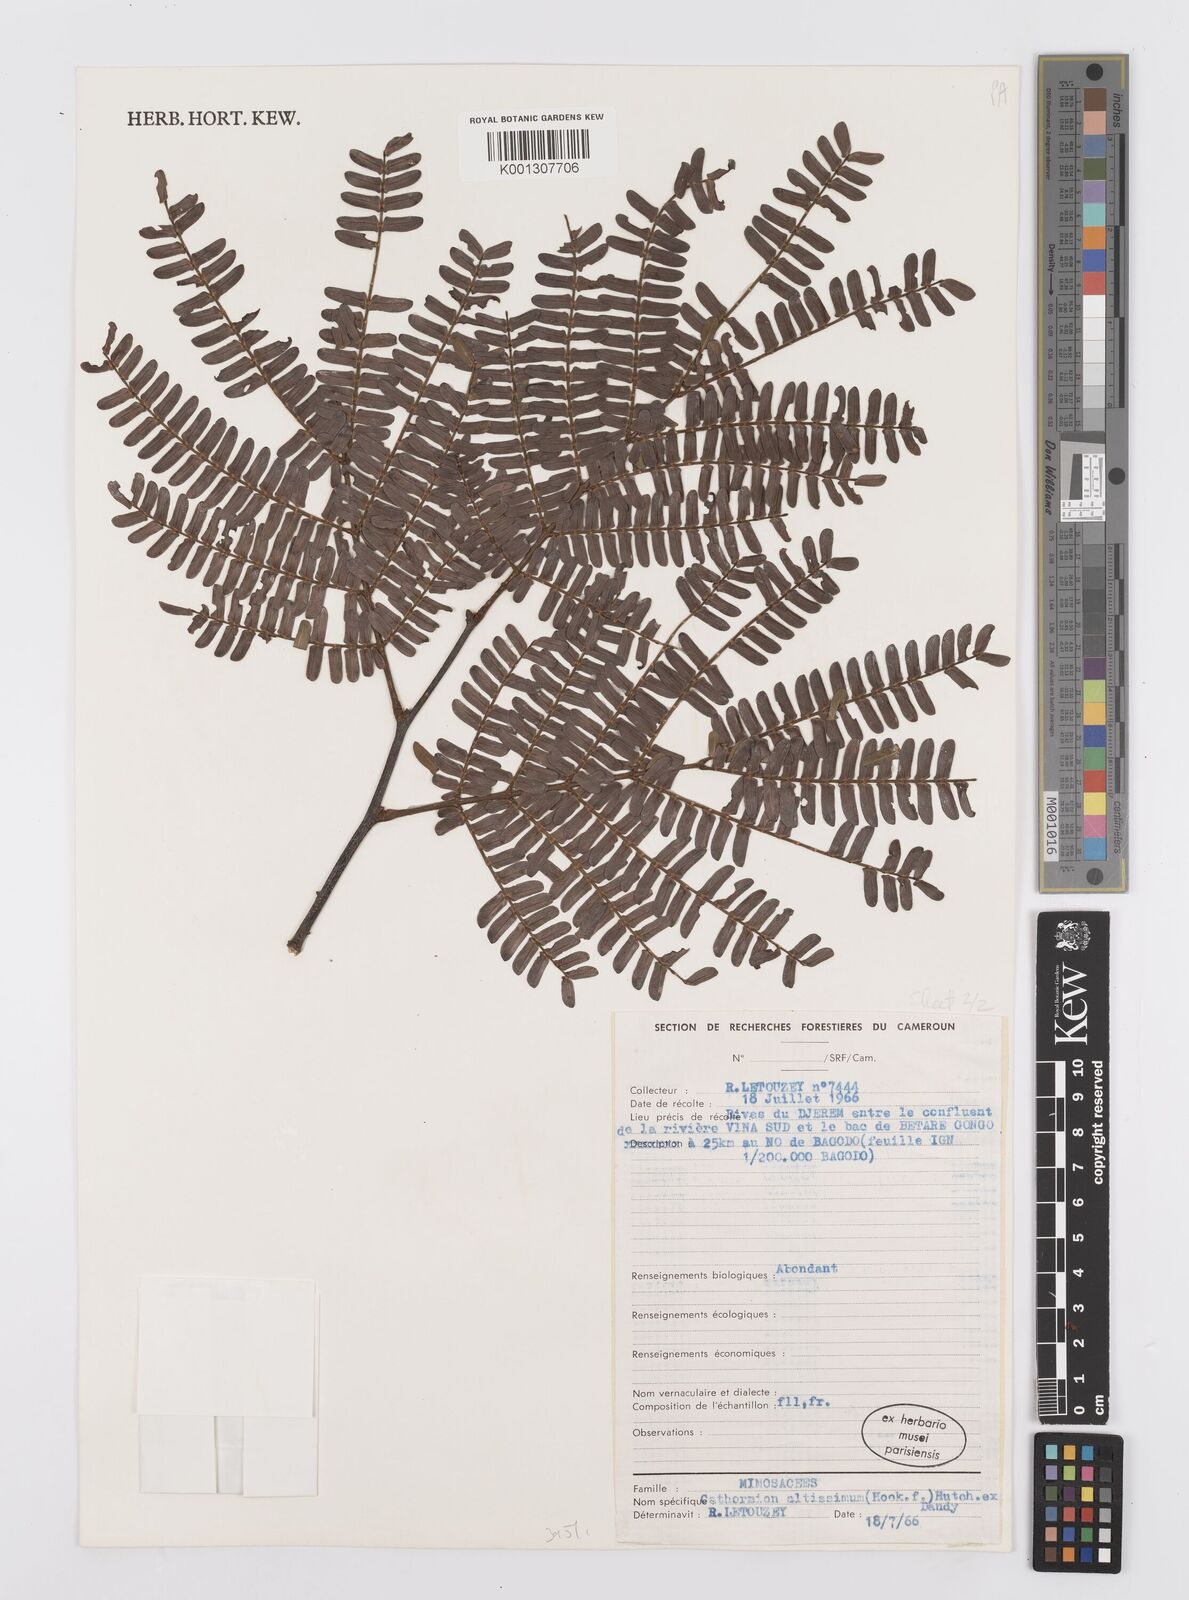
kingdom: Plantae
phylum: Tracheophyta
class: Magnoliopsida
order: Fabales
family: Fabaceae
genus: Albizia
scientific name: Albizia altissima
